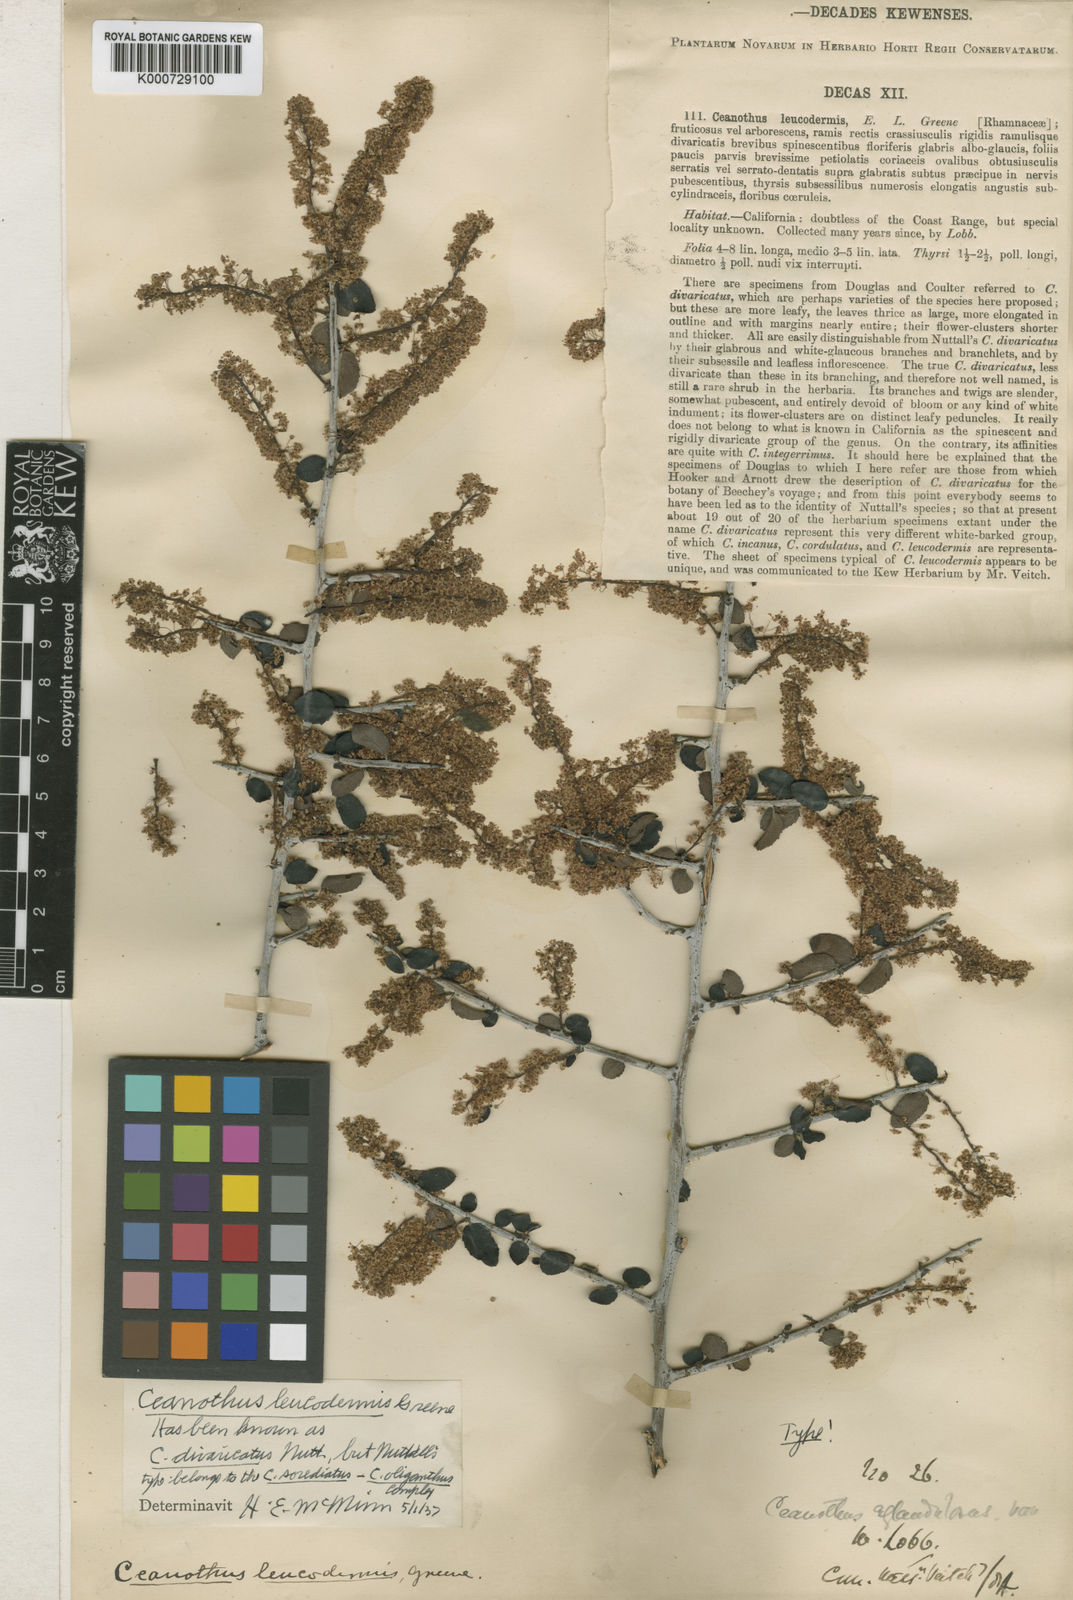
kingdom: Plantae
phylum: Tracheophyta
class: Magnoliopsida
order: Rosales
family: Rhamnaceae
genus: Ceanothus
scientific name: Ceanothus leucodermis
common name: Chaparral whitethorn
